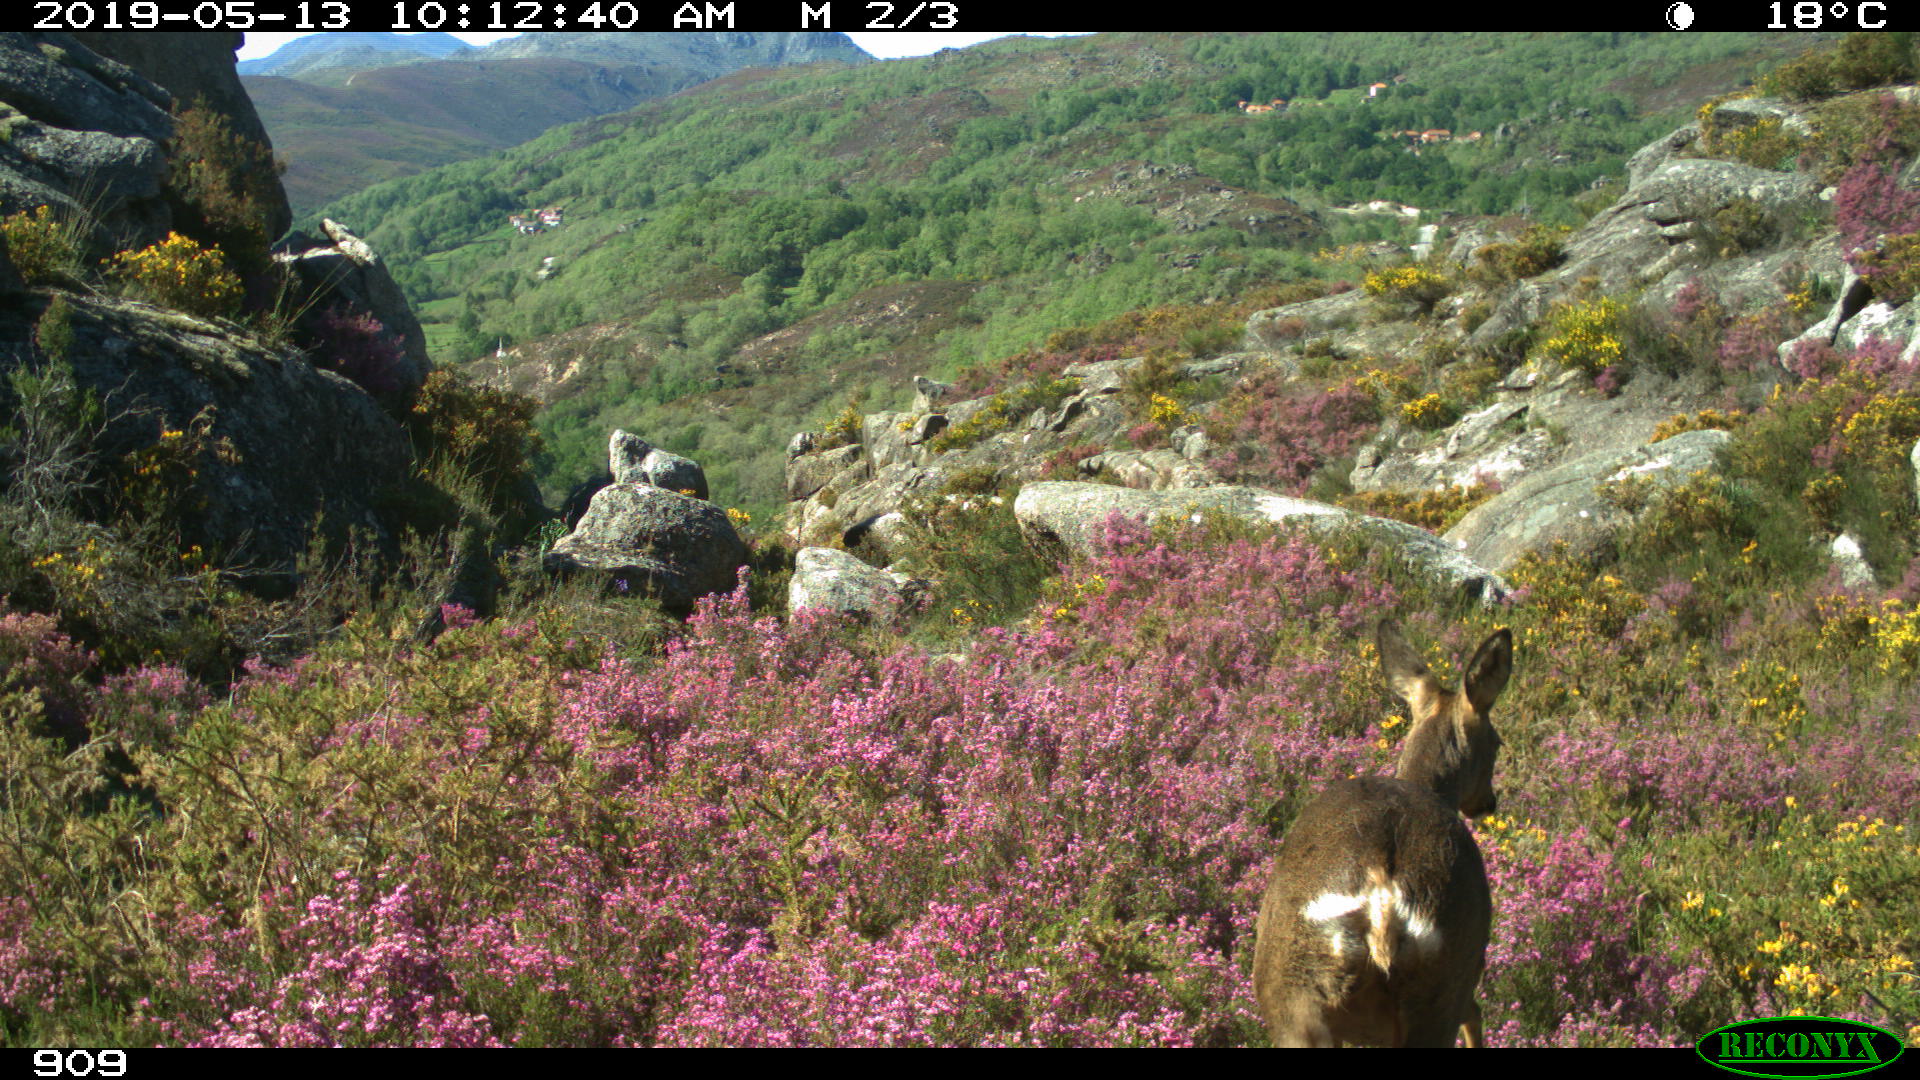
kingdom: Animalia
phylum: Chordata
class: Mammalia
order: Artiodactyla
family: Cervidae
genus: Capreolus
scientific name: Capreolus capreolus
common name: Western roe deer
